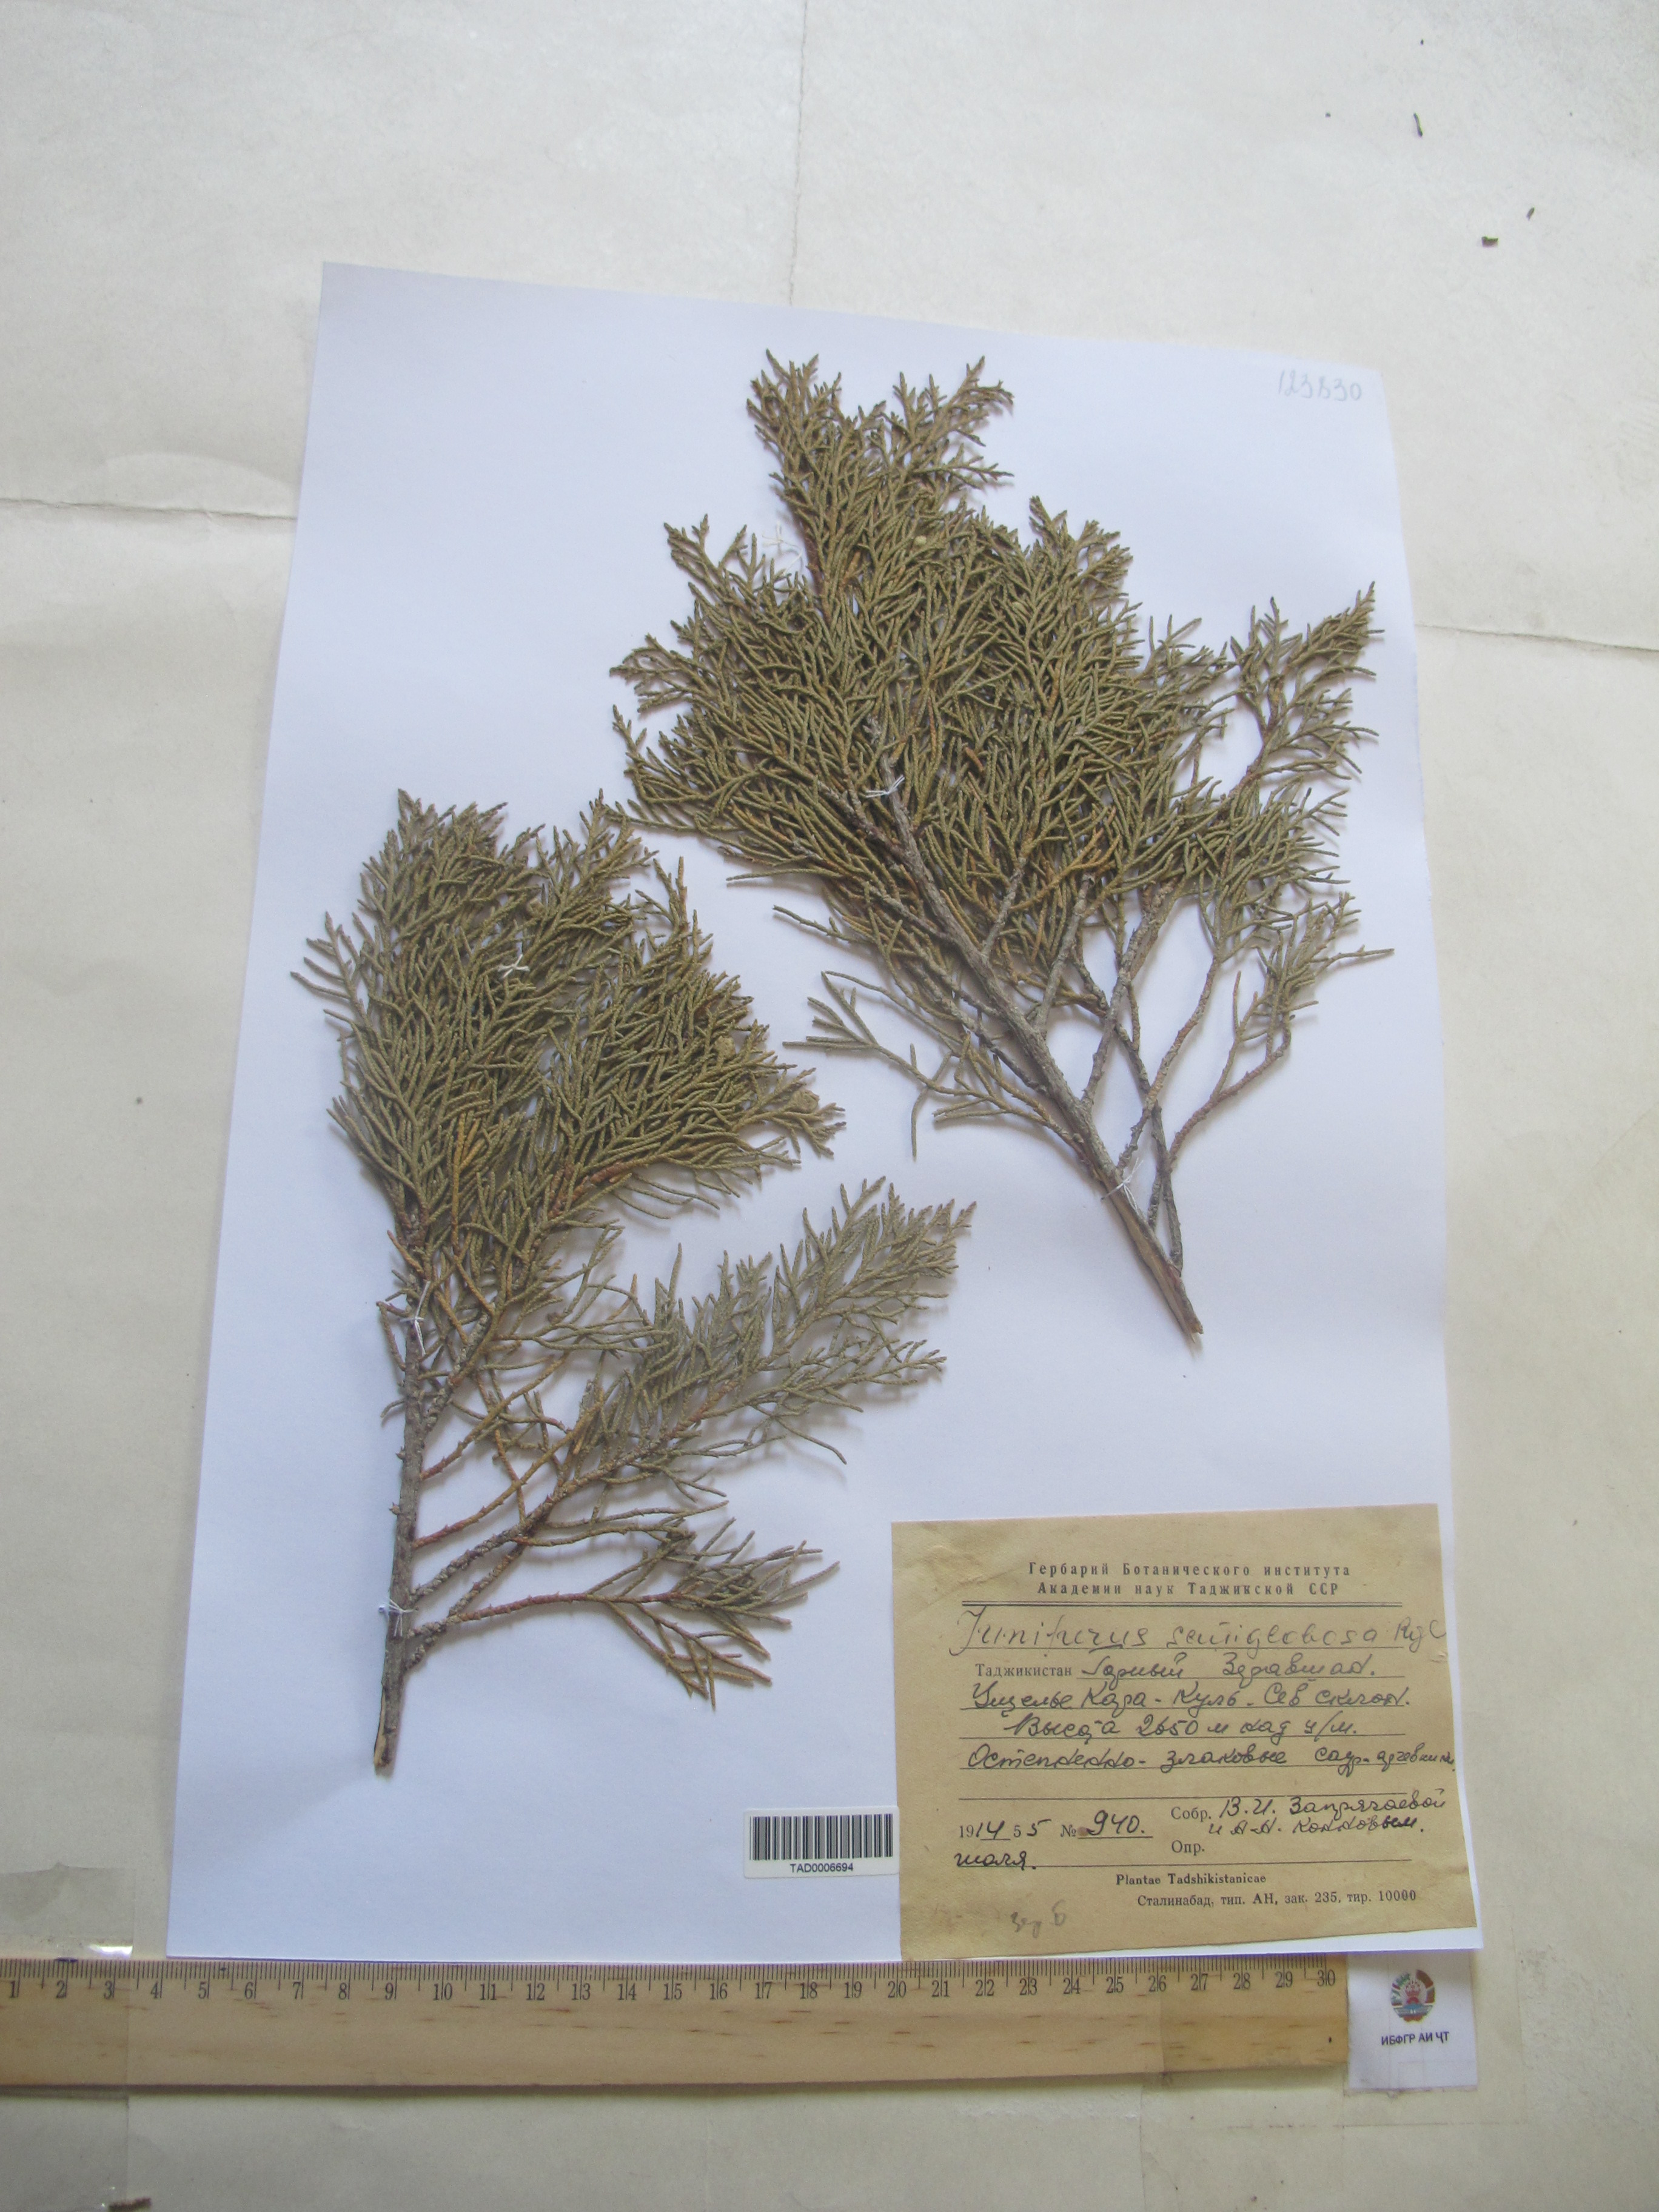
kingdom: Plantae
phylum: Tracheophyta
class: Pinopsida
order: Pinales
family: Cupressaceae
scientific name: Cupressaceae
